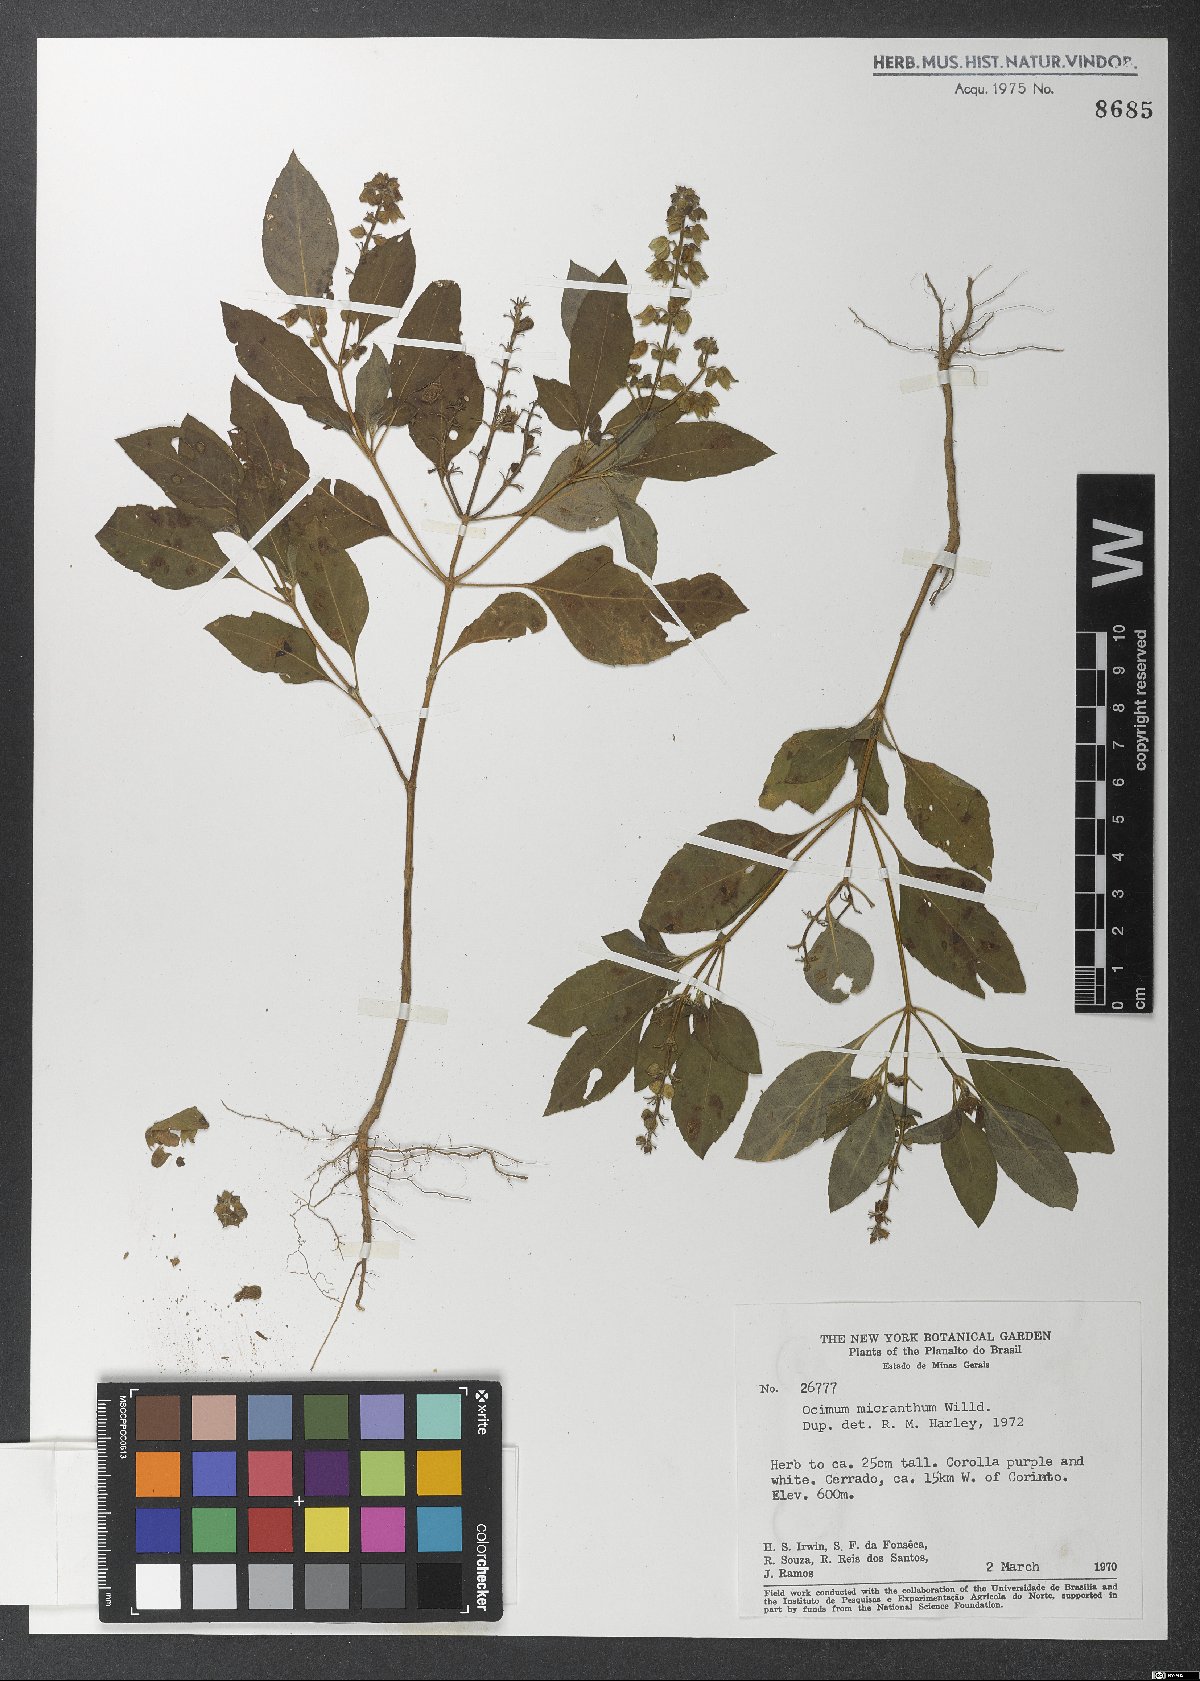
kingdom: Plantae
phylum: Tracheophyta
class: Magnoliopsida
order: Lamiales
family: Lamiaceae
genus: Ocimum
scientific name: Ocimum campechianum
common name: Mosquito basil
